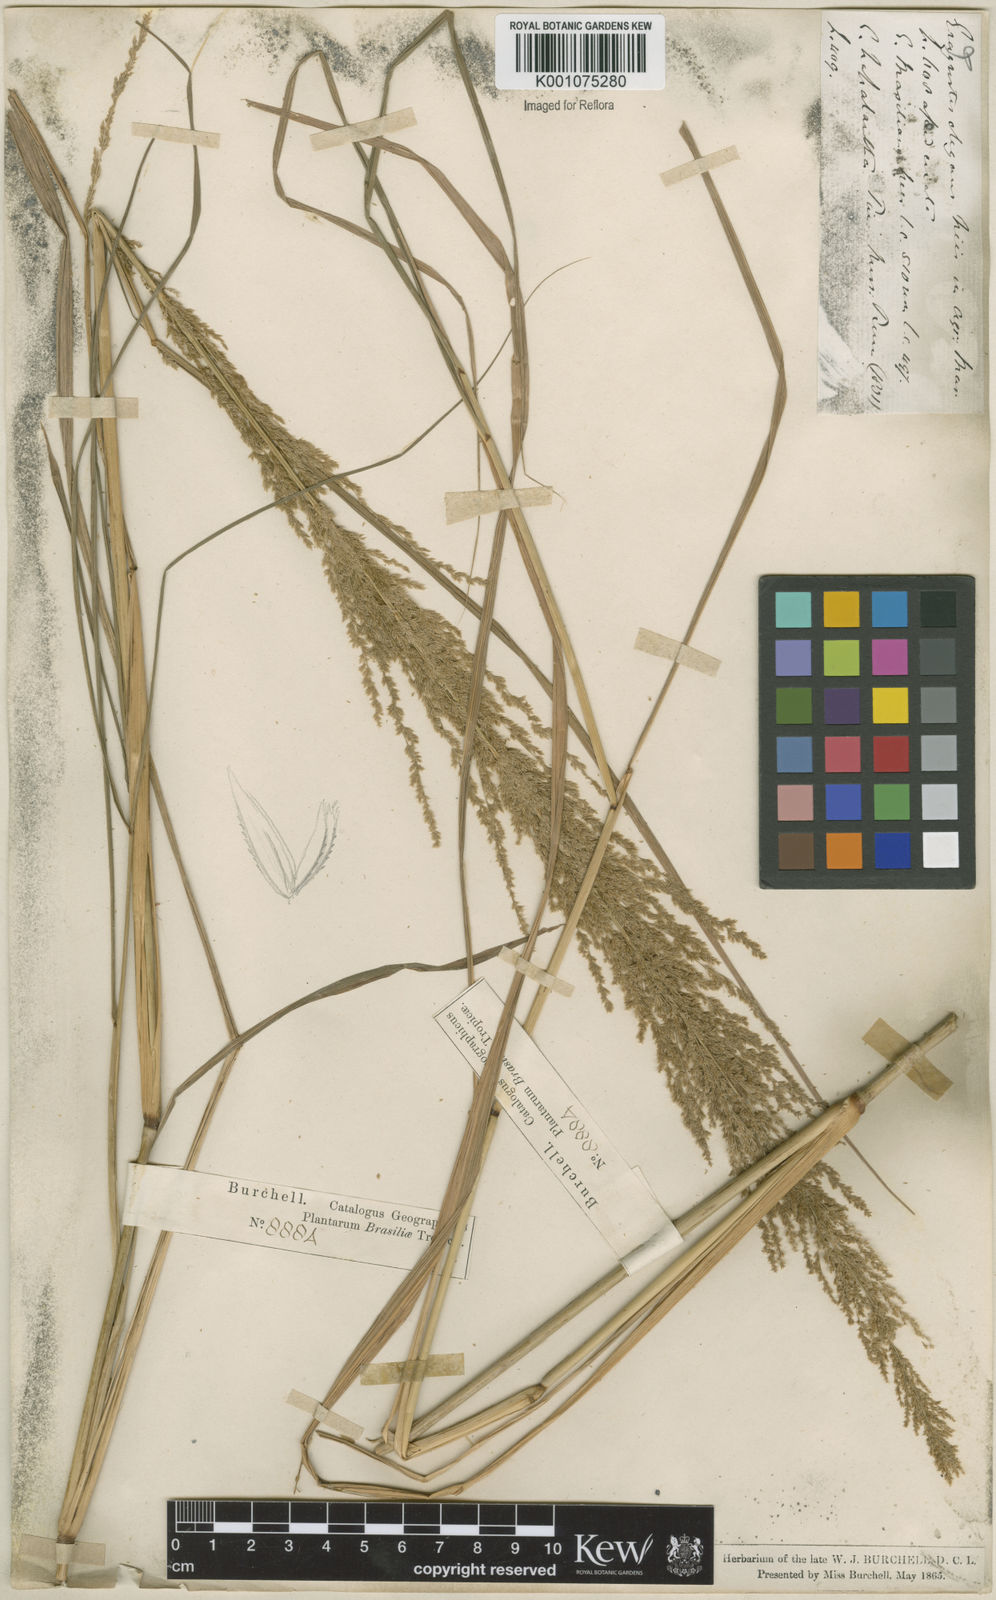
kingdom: Plantae
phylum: Tracheophyta
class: Liliopsida
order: Poales
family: Poaceae
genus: Eragrostis
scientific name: Eragrostis japonica
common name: Pond lovegrass
